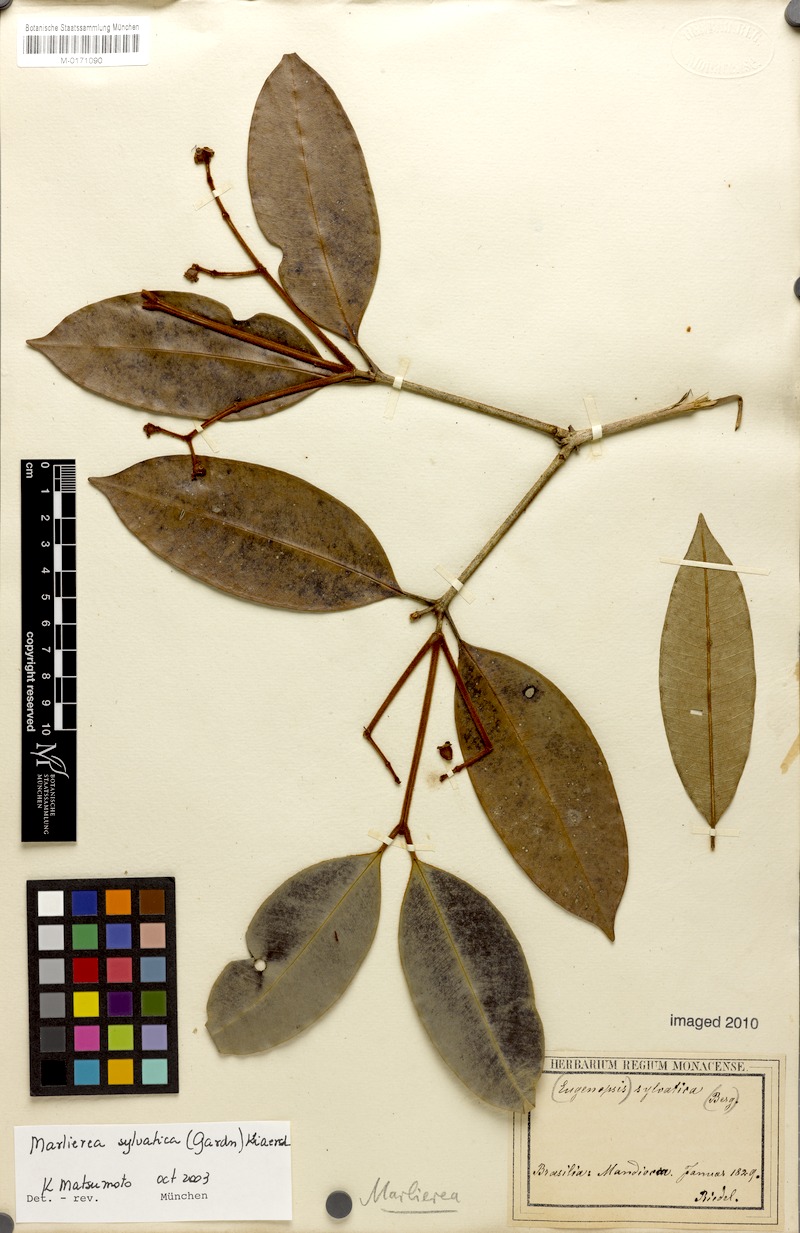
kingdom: Plantae
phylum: Tracheophyta
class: Magnoliopsida
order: Myrtales
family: Myrtaceae
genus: Myrcia
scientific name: Myrcia ferruginosa
